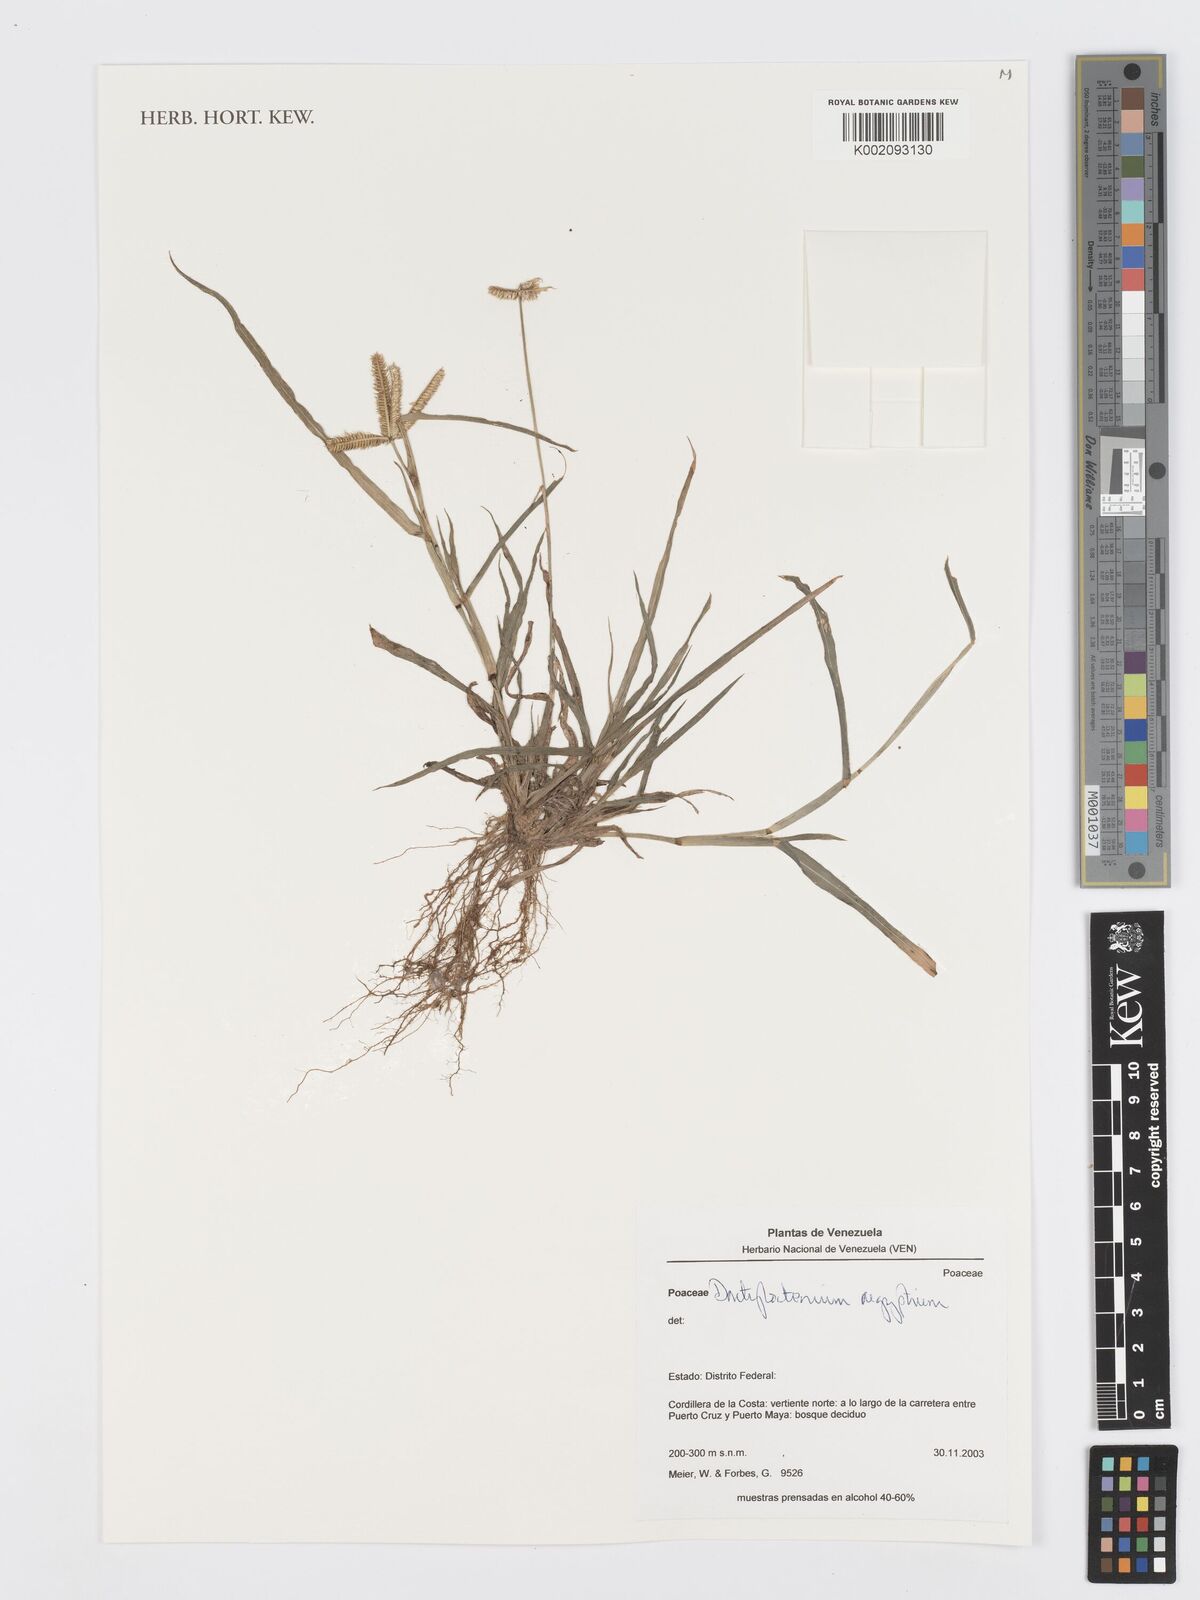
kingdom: Plantae
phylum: Tracheophyta
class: Liliopsida
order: Poales
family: Poaceae
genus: Dactyloctenium
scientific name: Dactyloctenium aegyptium
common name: Egyptian grass
